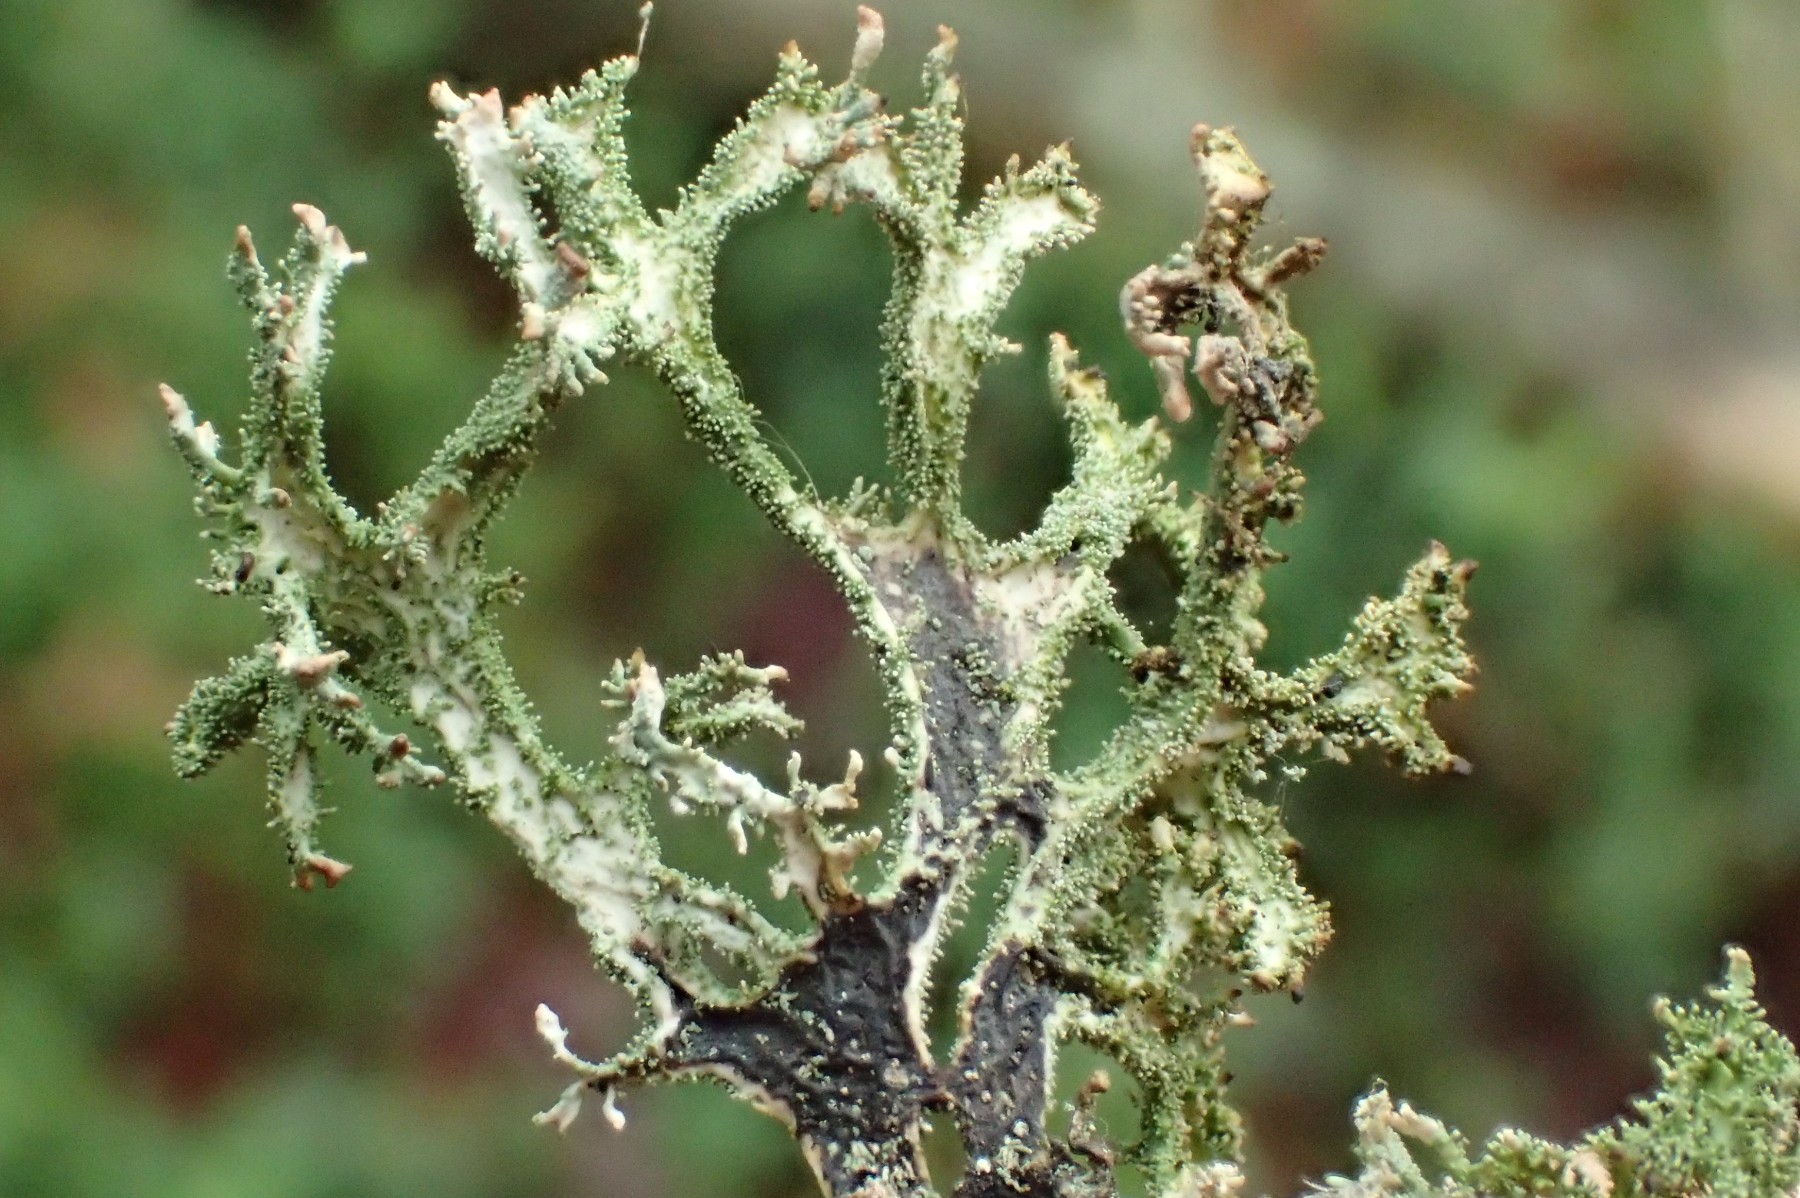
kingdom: Fungi
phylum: Ascomycota
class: Lecanoromycetes
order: Lecanorales
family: Parmeliaceae
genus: Pseudevernia
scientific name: Pseudevernia furfuracea
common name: grå fyrrelav
